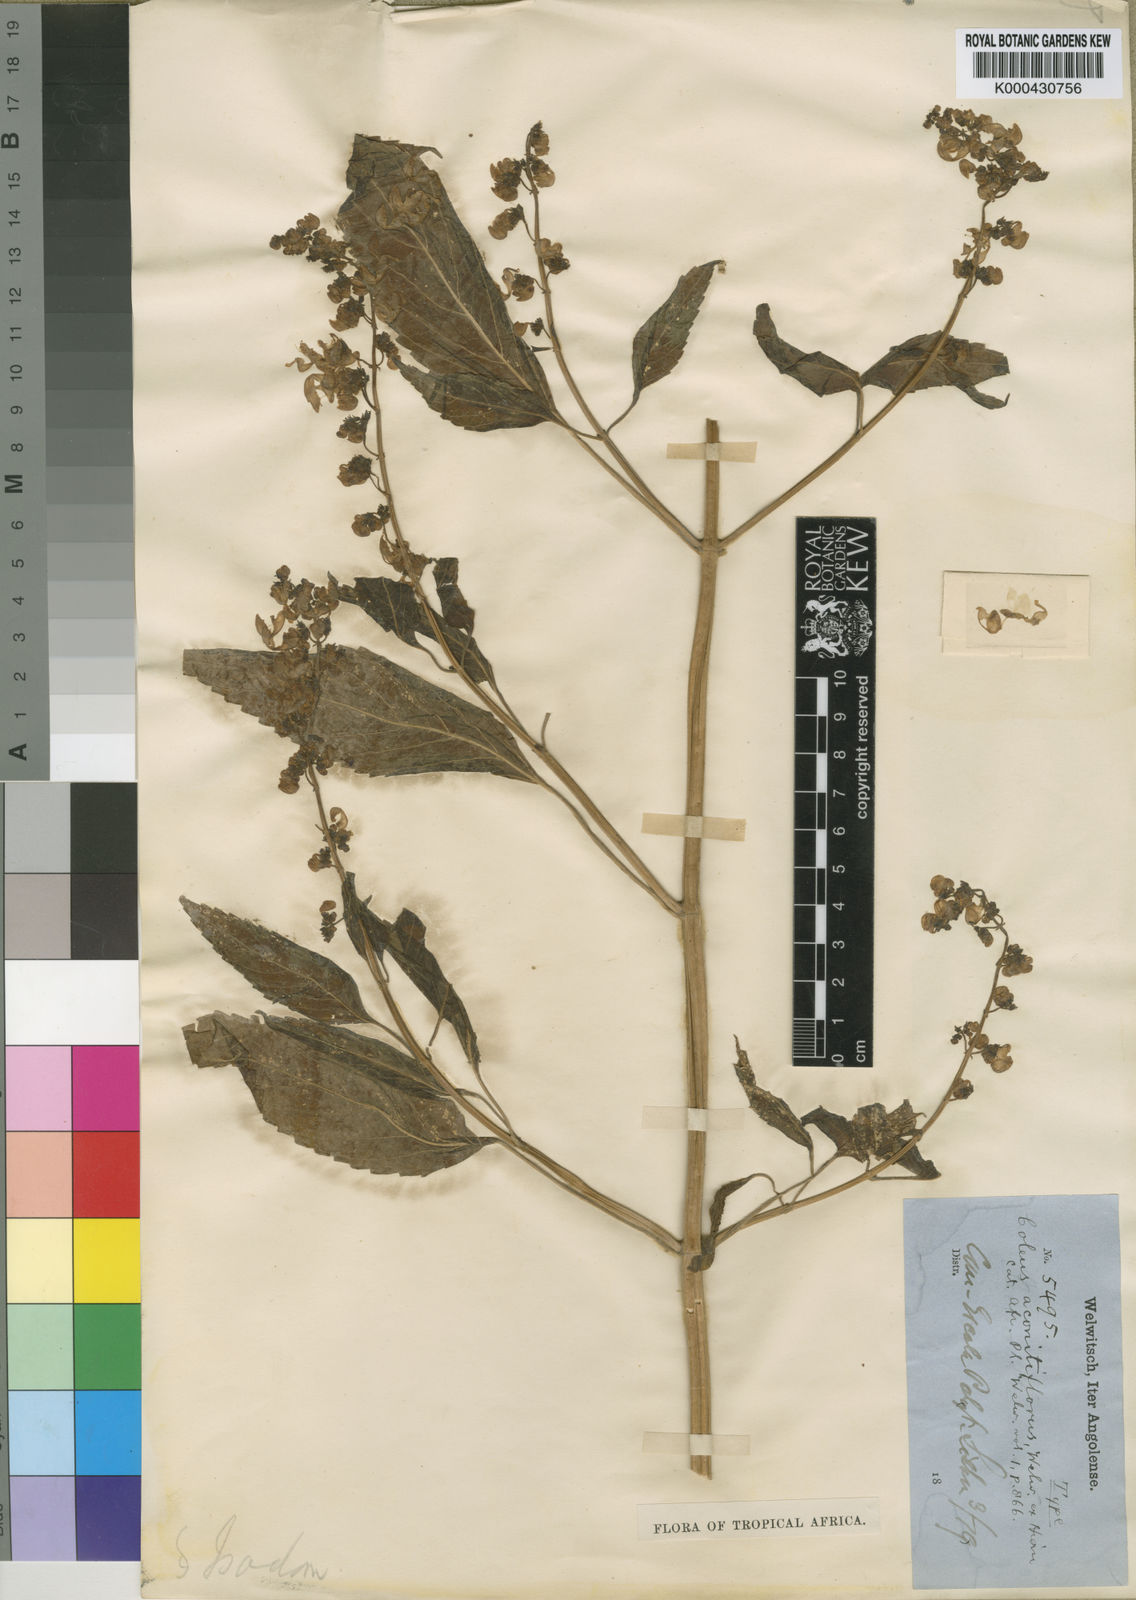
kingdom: Plantae
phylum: Tracheophyta
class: Magnoliopsida
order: Lamiales
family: Lamiaceae
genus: Coleus
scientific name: Coleus hereroensis
